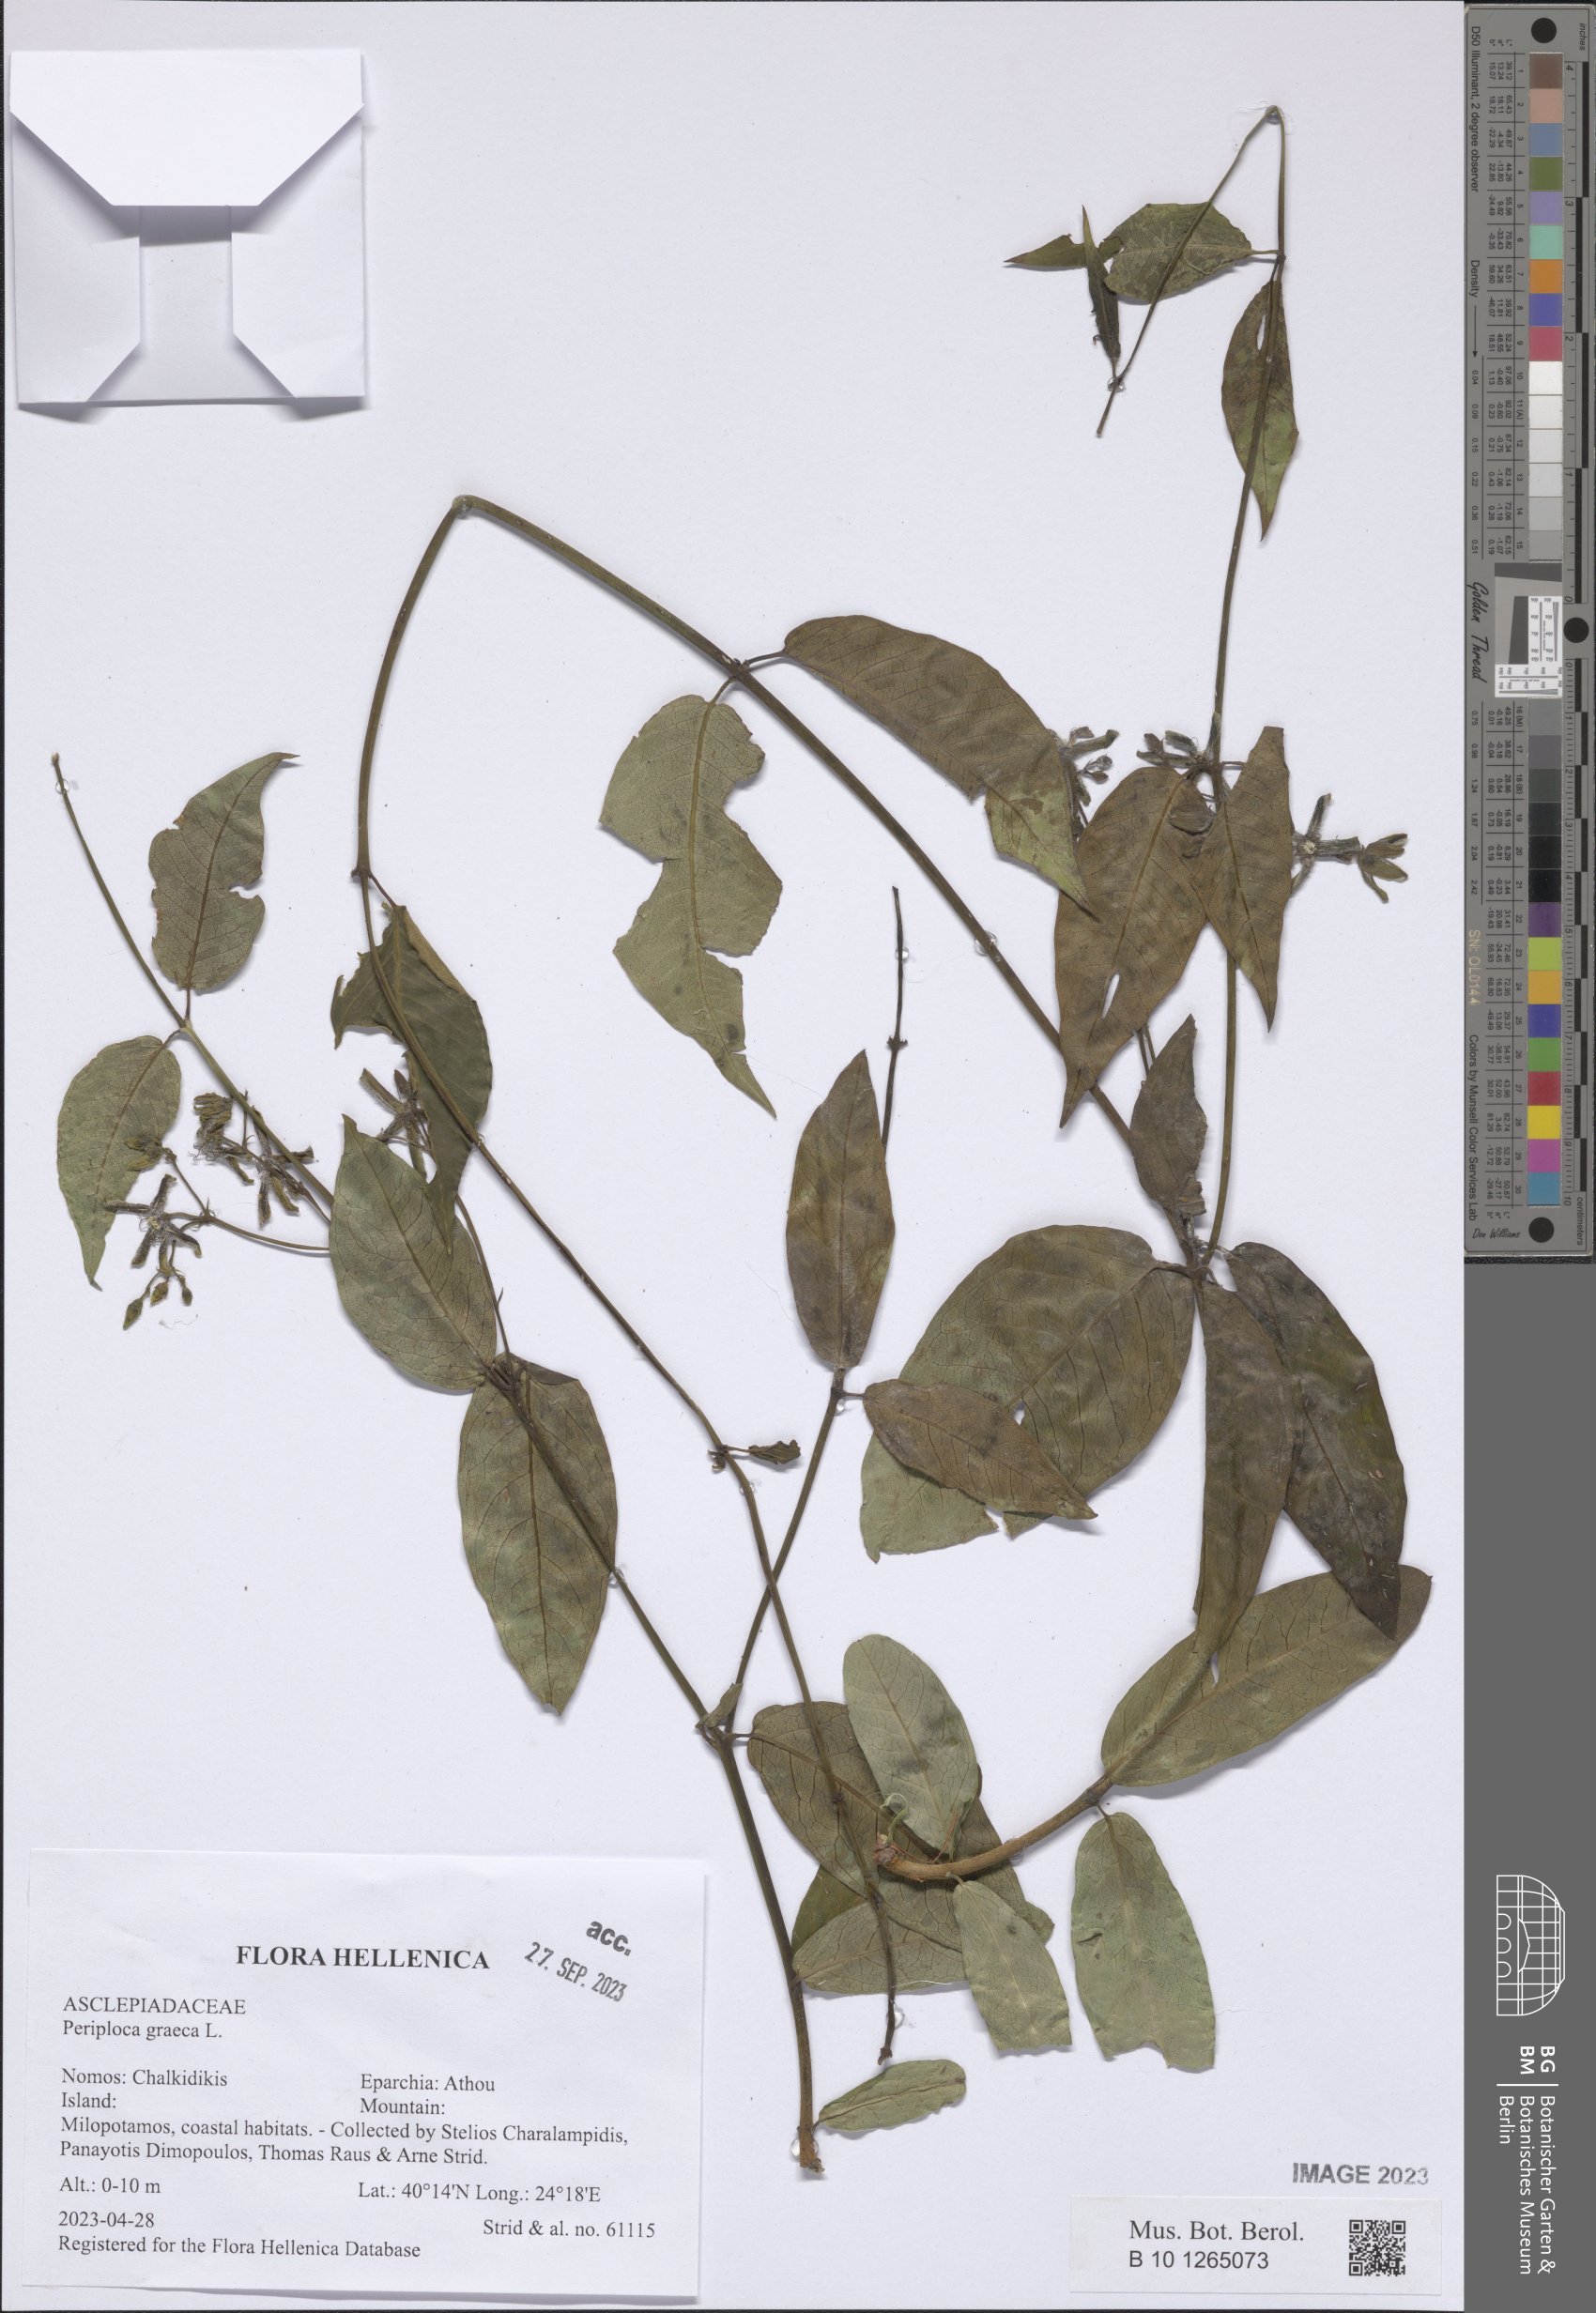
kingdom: Plantae
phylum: Tracheophyta
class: Magnoliopsida
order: Gentianales
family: Apocynaceae
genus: Periploca
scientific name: Periploca graeca
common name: Silkvine
